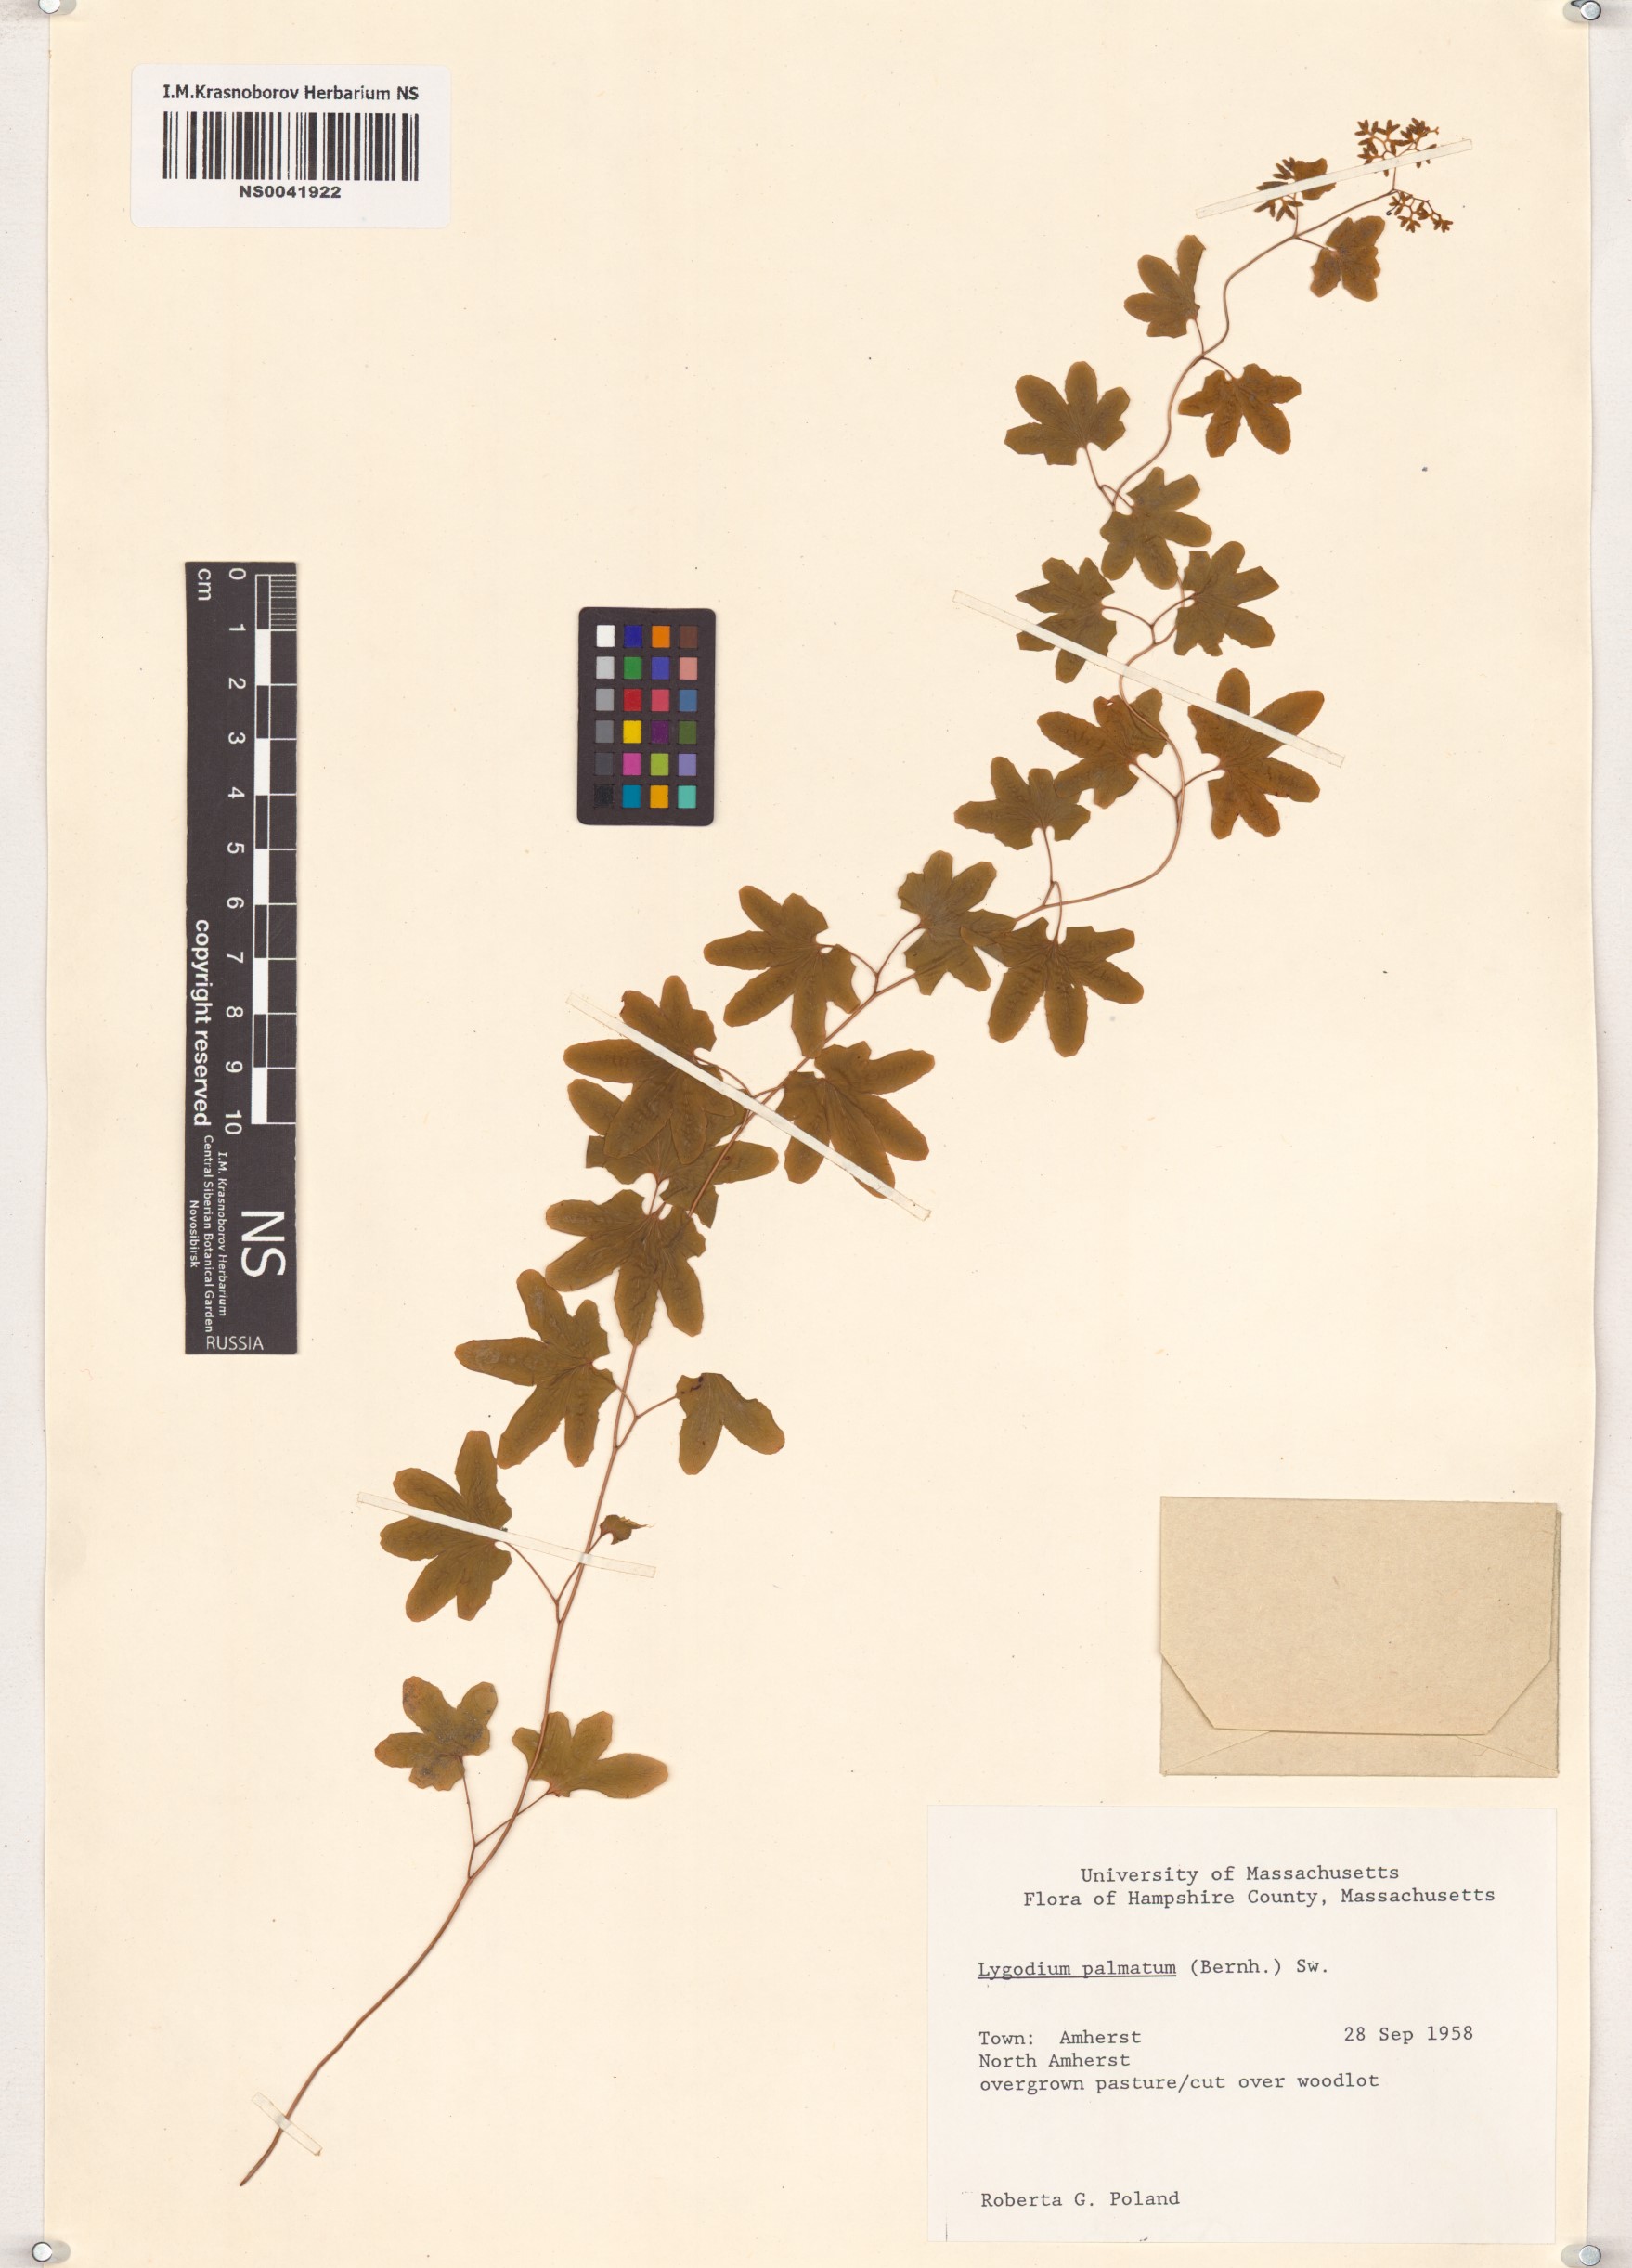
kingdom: Plantae
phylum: Tracheophyta
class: Polypodiopsida
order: Schizaeales
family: Lygodiaceae
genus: Lygodium
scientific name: Lygodium palmatum
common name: American climbing fern
